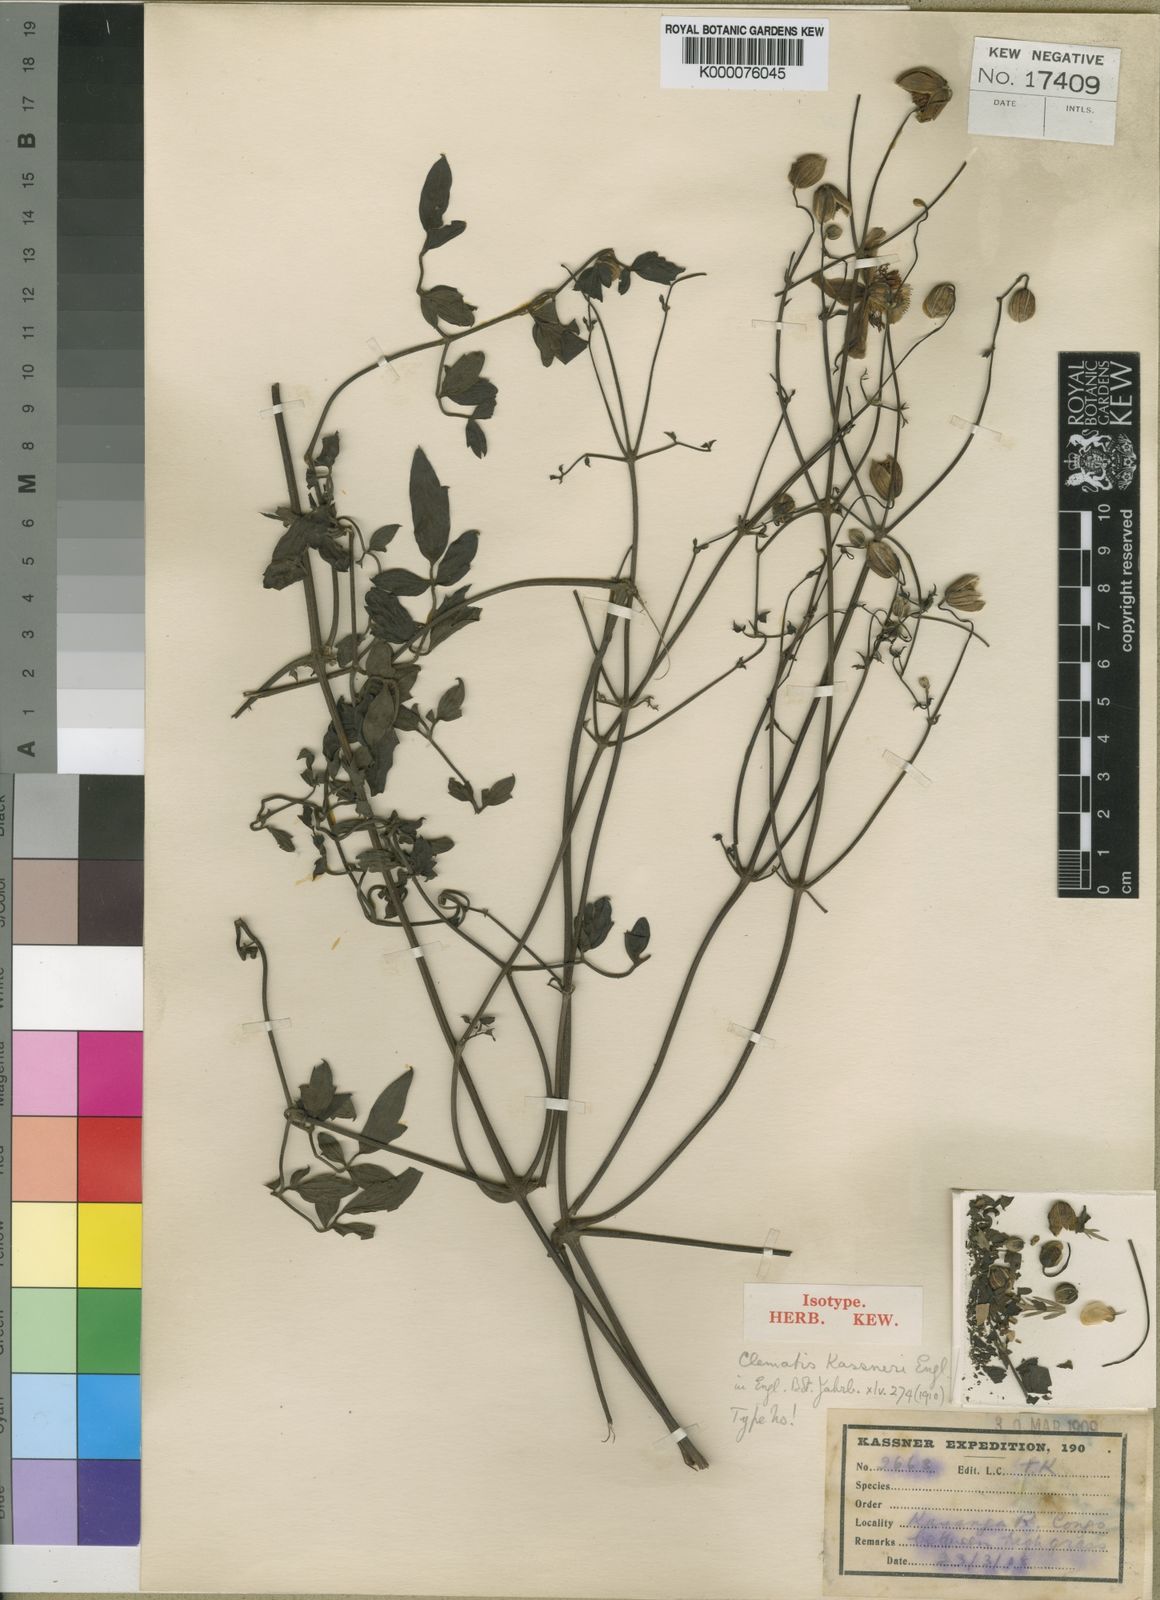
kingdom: Plantae
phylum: Tracheophyta
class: Magnoliopsida
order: Ranunculales
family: Ranunculaceae
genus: Clematis
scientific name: Clematis welwitschii
